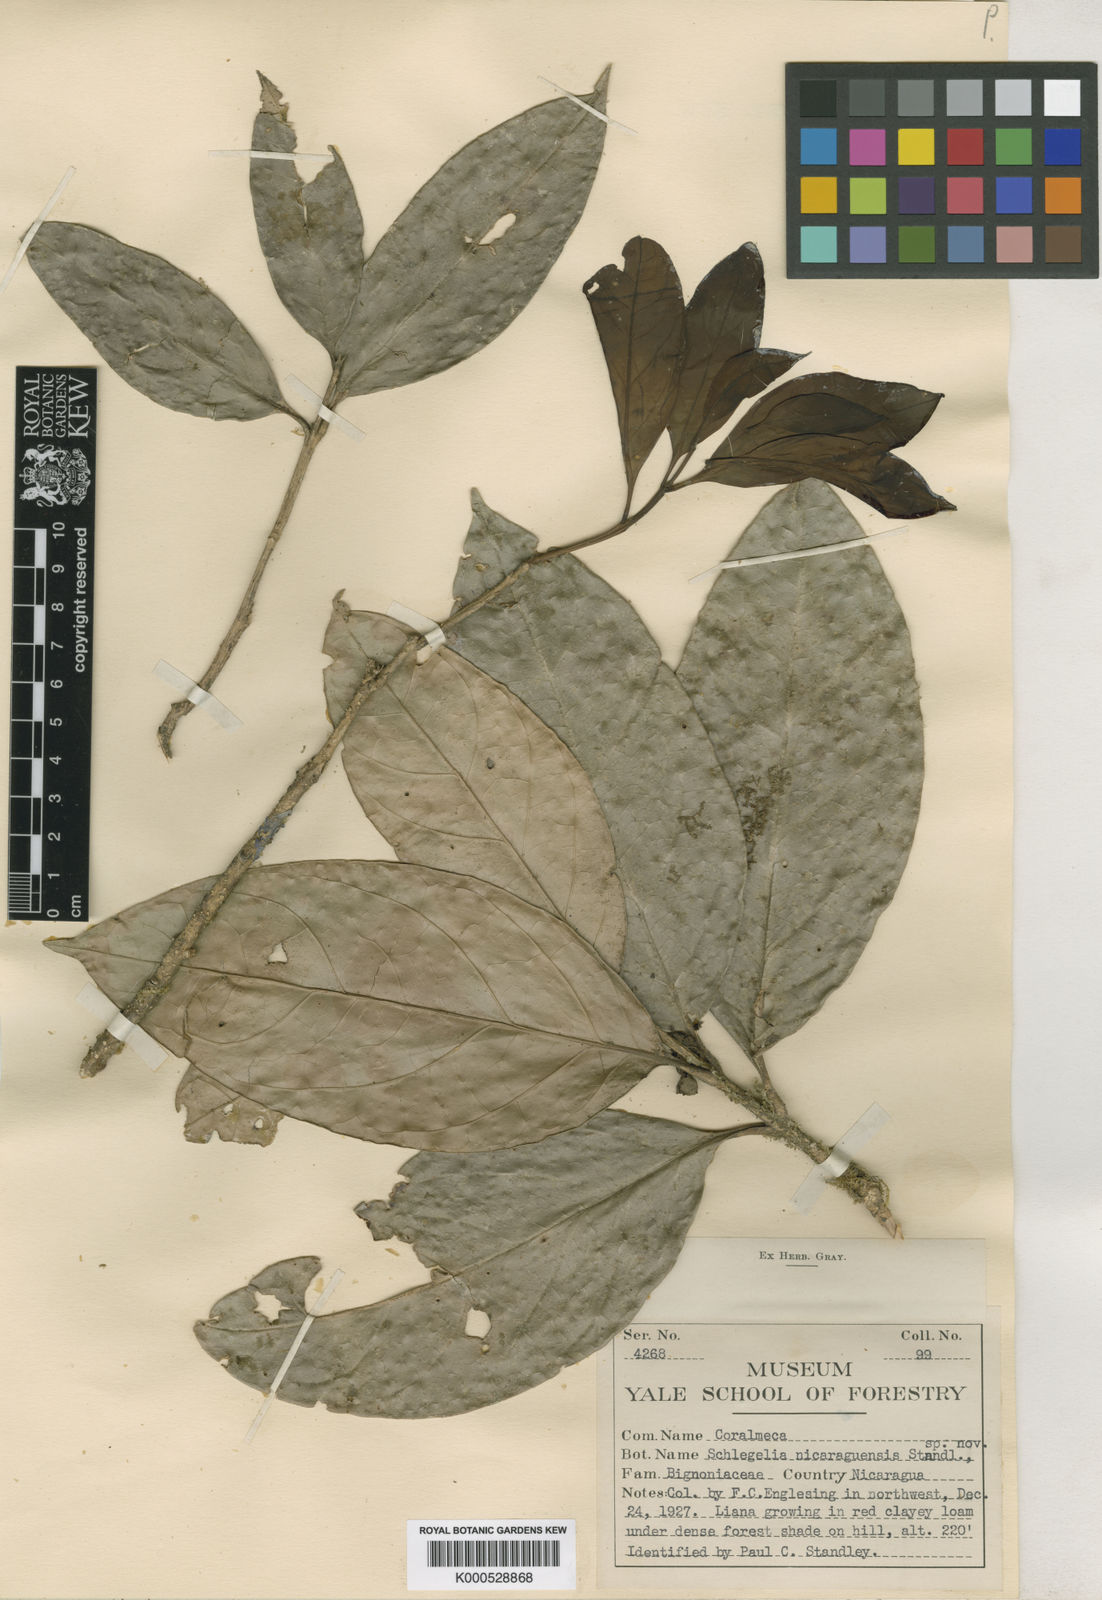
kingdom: Plantae
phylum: Tracheophyta
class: Magnoliopsida
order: Lamiales
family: Schlegeliaceae
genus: Schlegelia
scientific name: Schlegelia nicaraguensis
